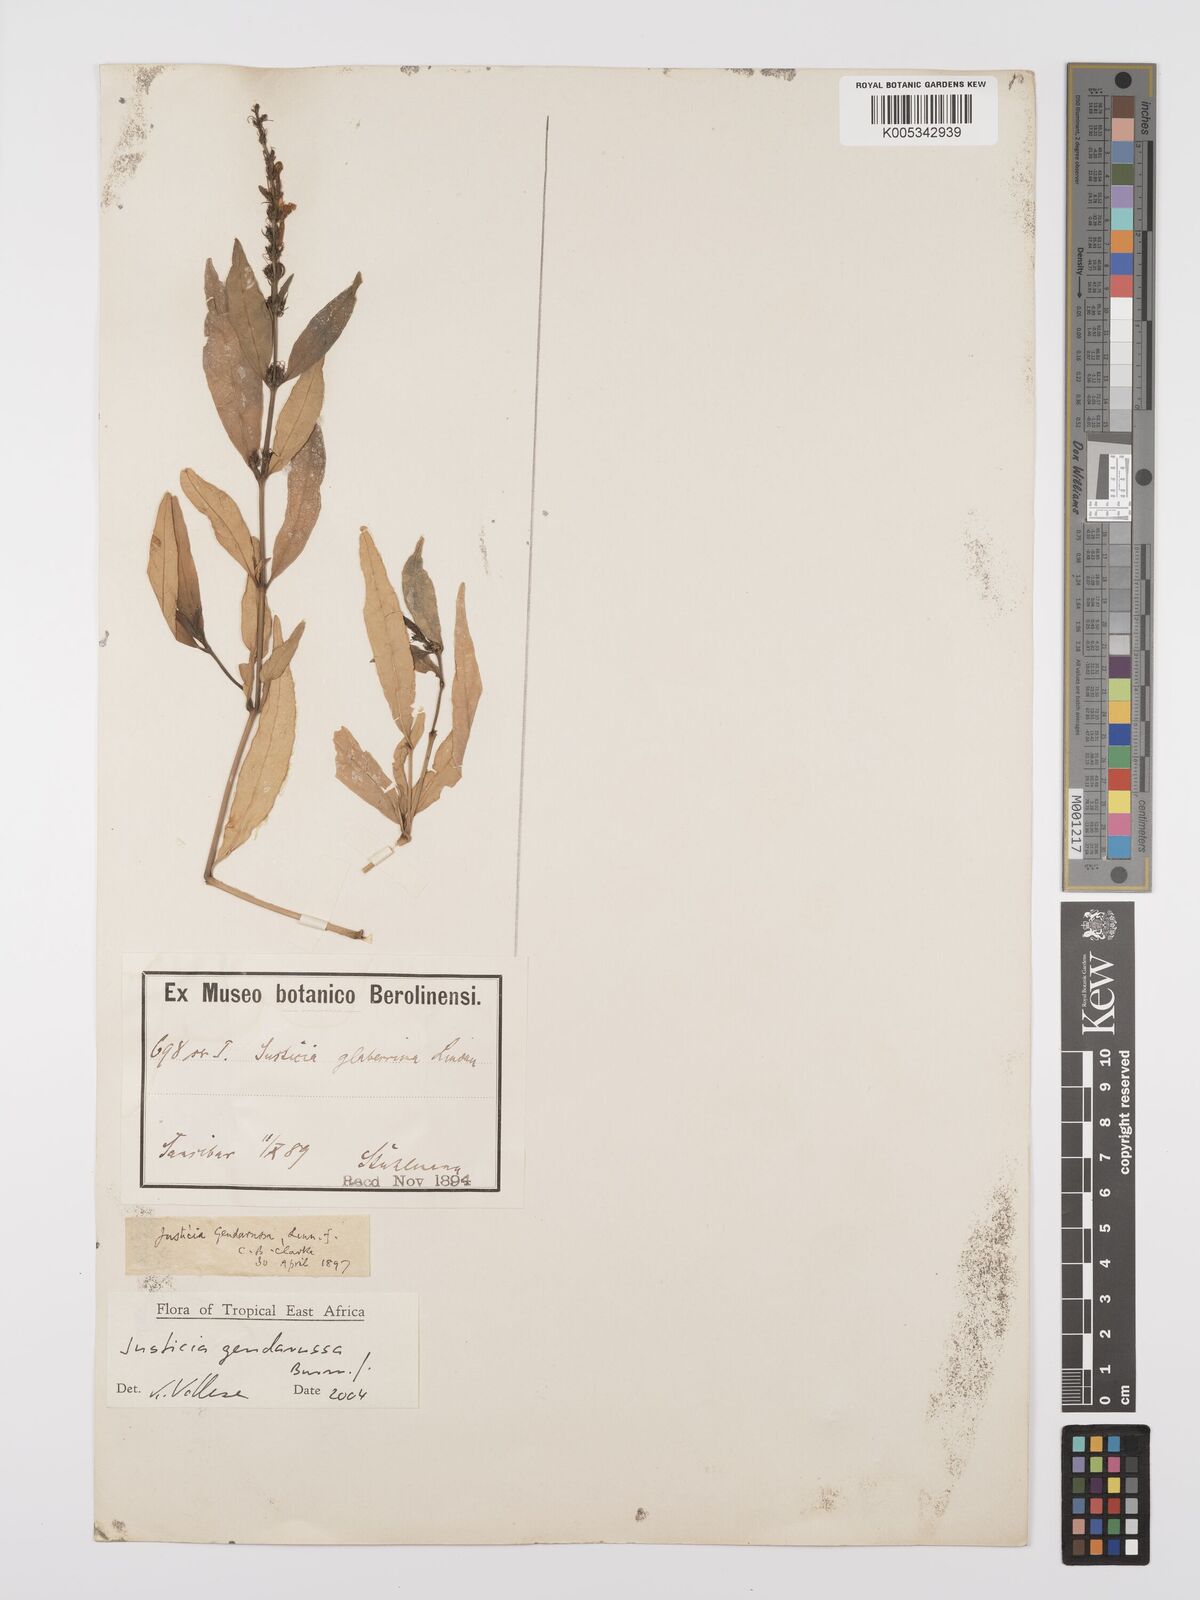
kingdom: Plantae
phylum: Tracheophyta
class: Magnoliopsida
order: Lamiales
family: Acanthaceae
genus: Justicia
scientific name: Justicia
